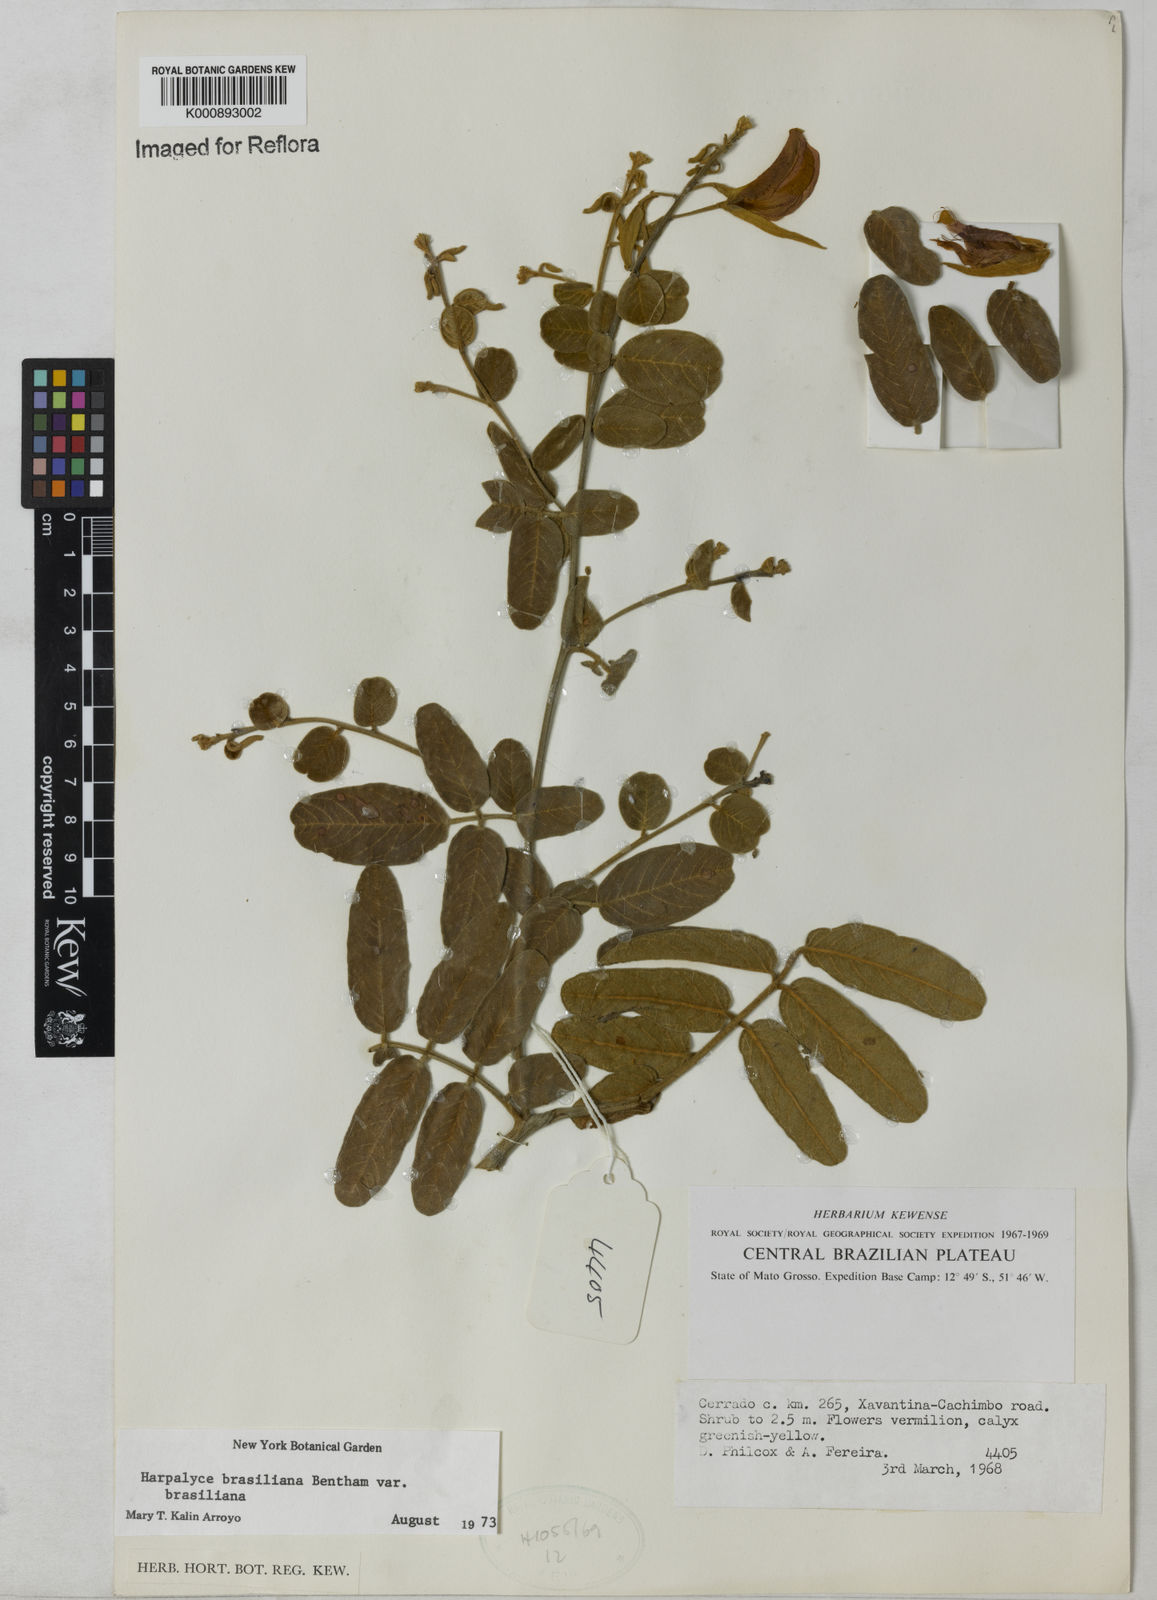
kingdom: Plantae
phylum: Tracheophyta
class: Magnoliopsida
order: Fabales
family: Fabaceae
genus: Harpalyce
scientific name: Harpalyce brasiliana
